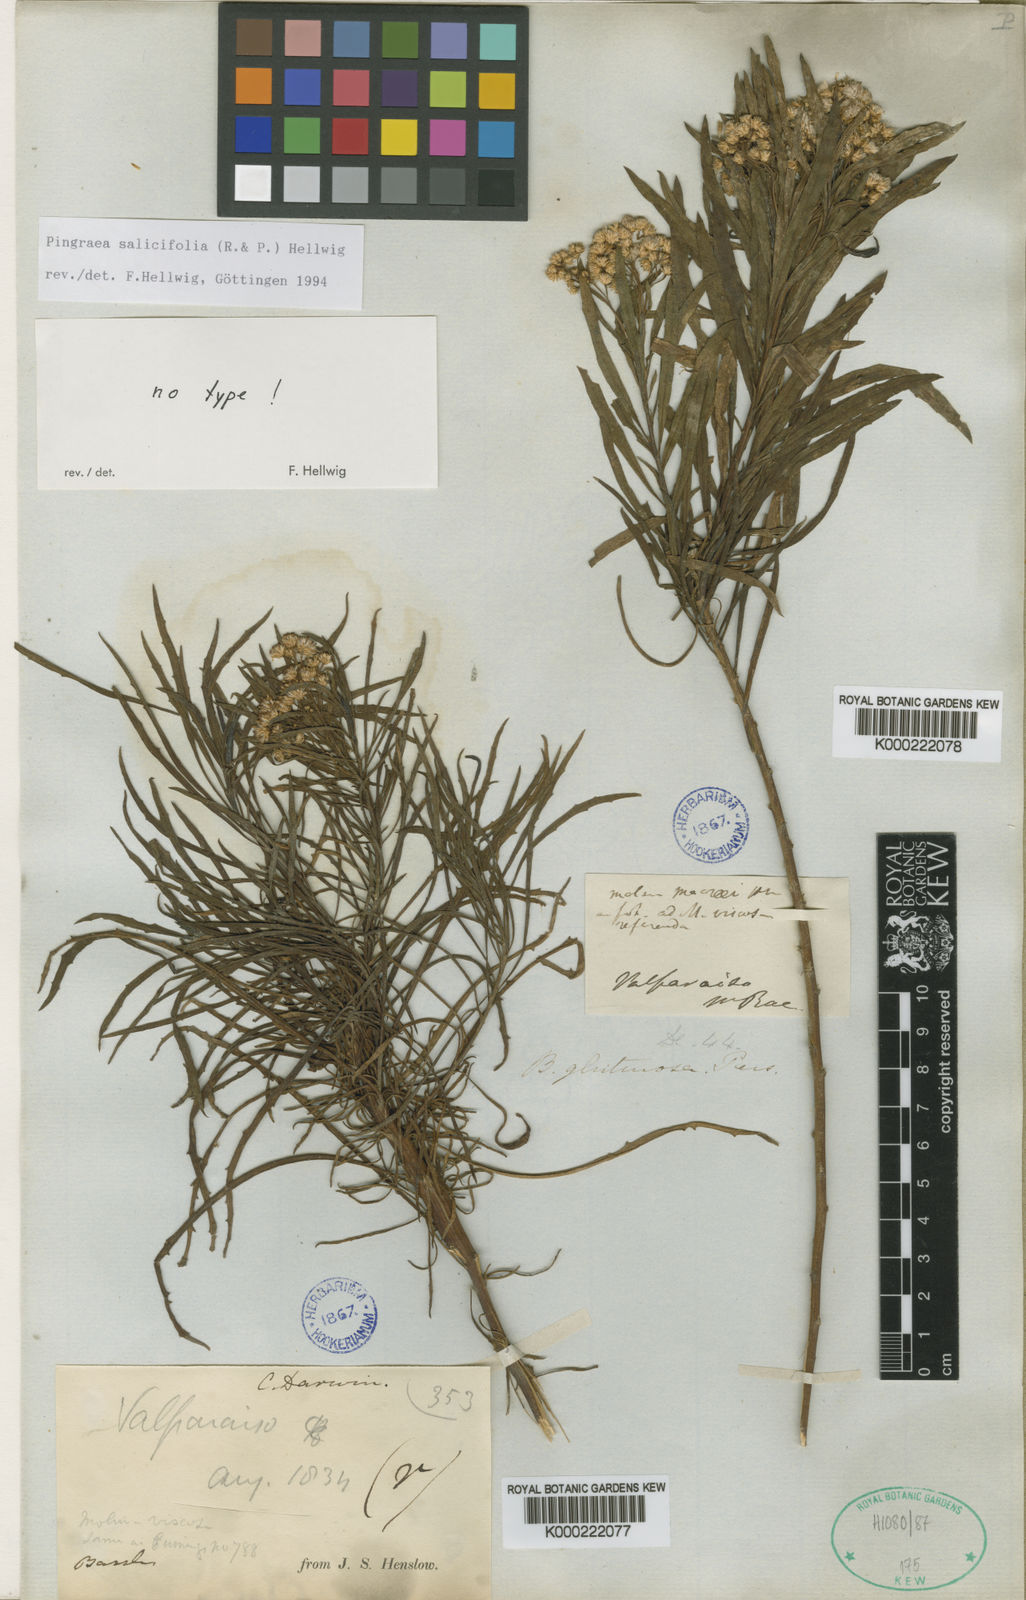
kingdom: Plantae
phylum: Tracheophyta
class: Magnoliopsida
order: Asterales
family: Asteraceae
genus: Baccharis
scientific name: Baccharis salicifolia
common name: Sticky baccharis
